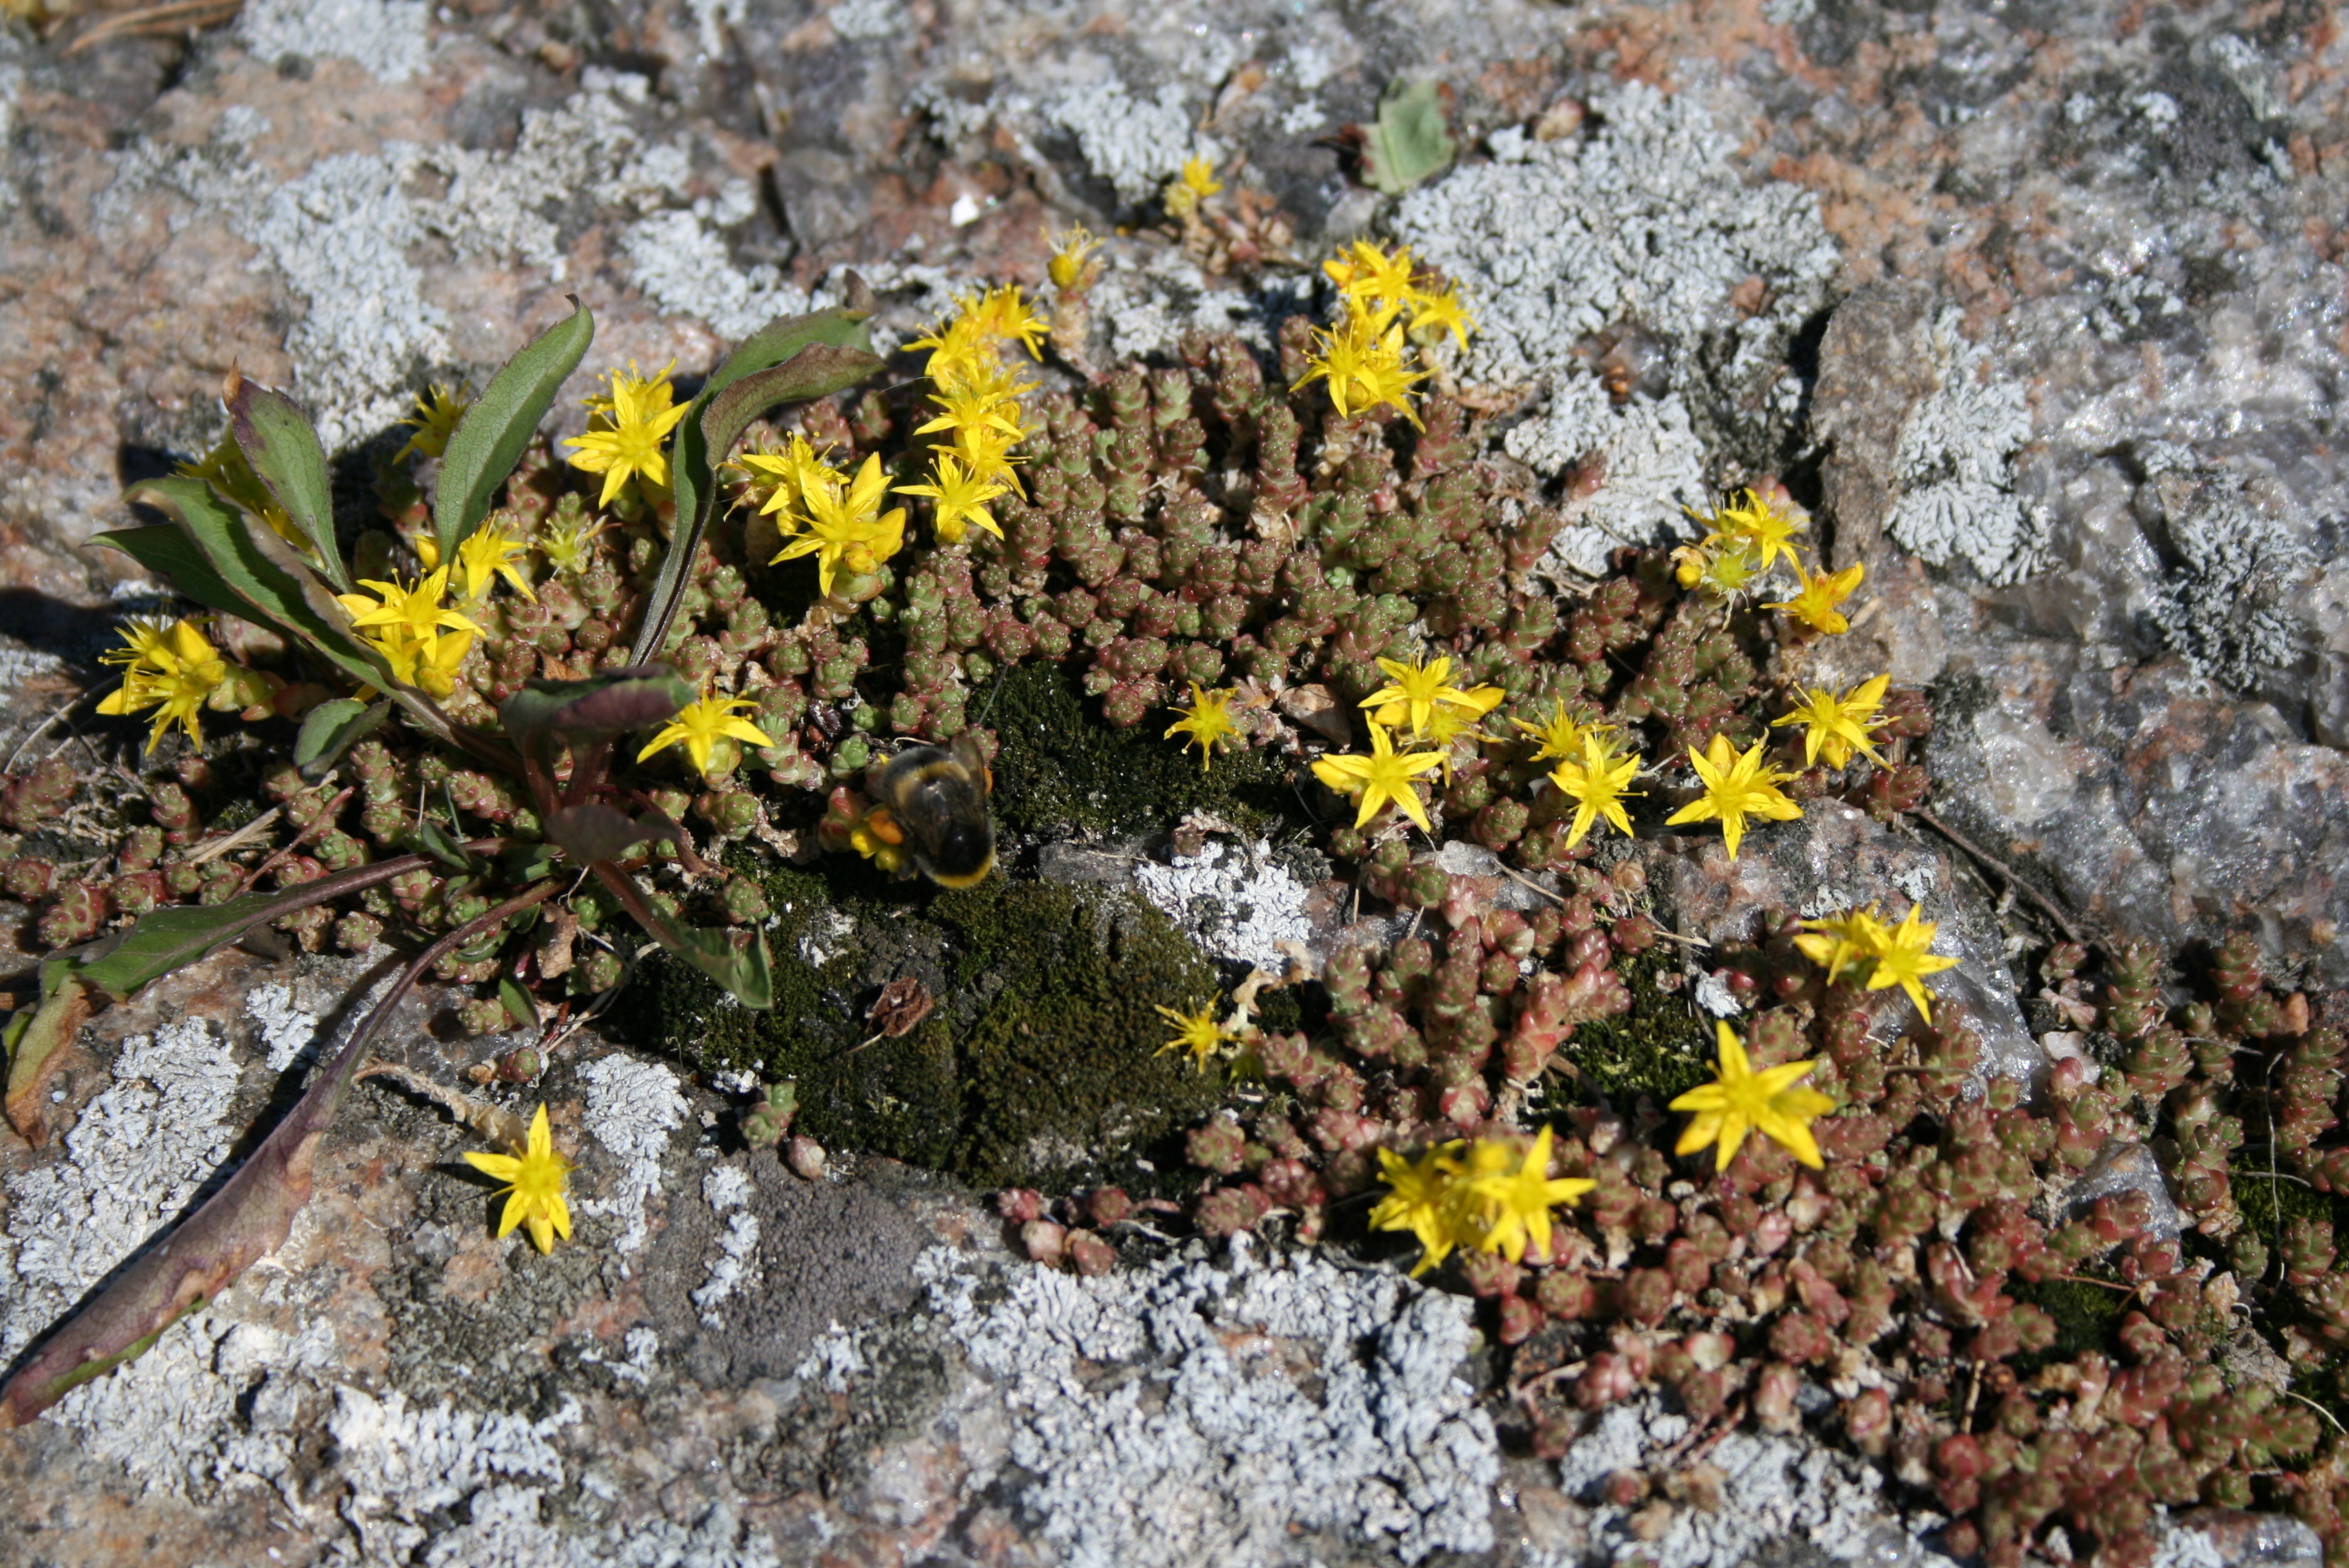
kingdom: Animalia
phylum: Arthropoda
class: Insecta
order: Hymenoptera
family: Apidae
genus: Bombus
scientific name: Bombus
